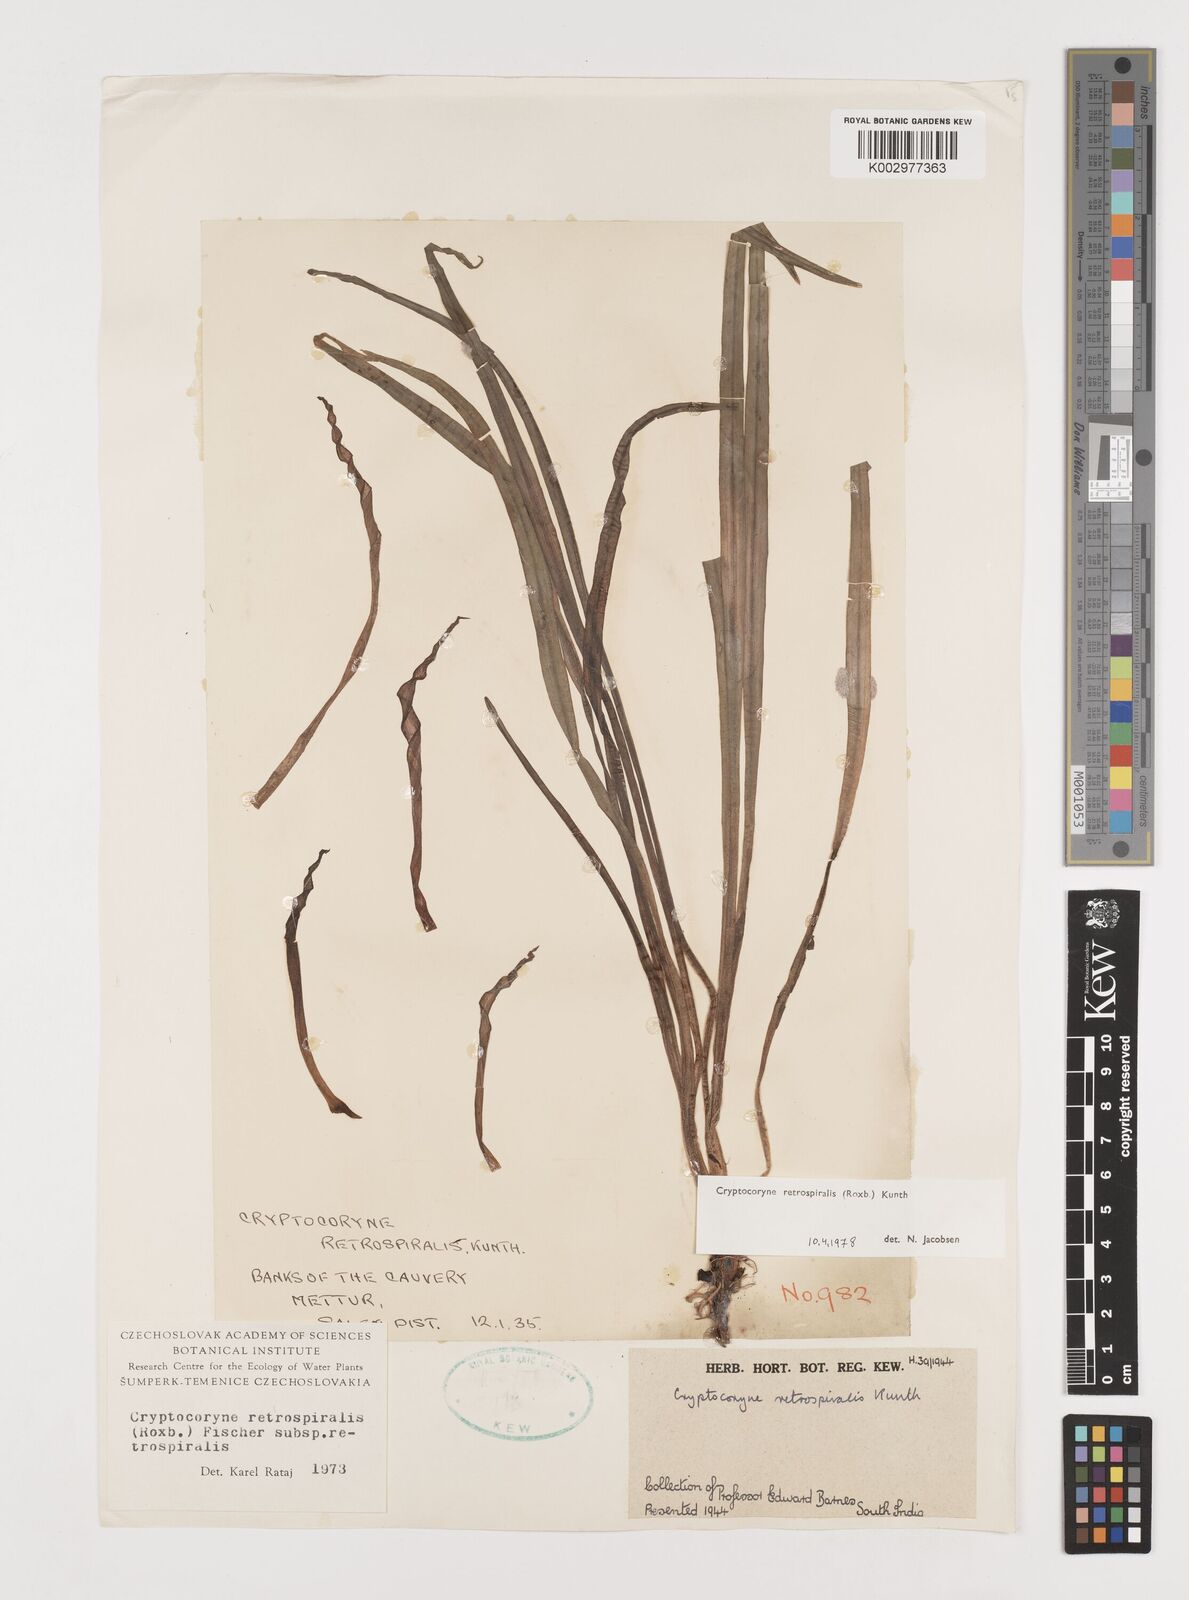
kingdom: Plantae
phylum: Tracheophyta
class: Liliopsida
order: Alismatales
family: Araceae
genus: Cryptocoryne
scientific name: Cryptocoryne retrospiralis
